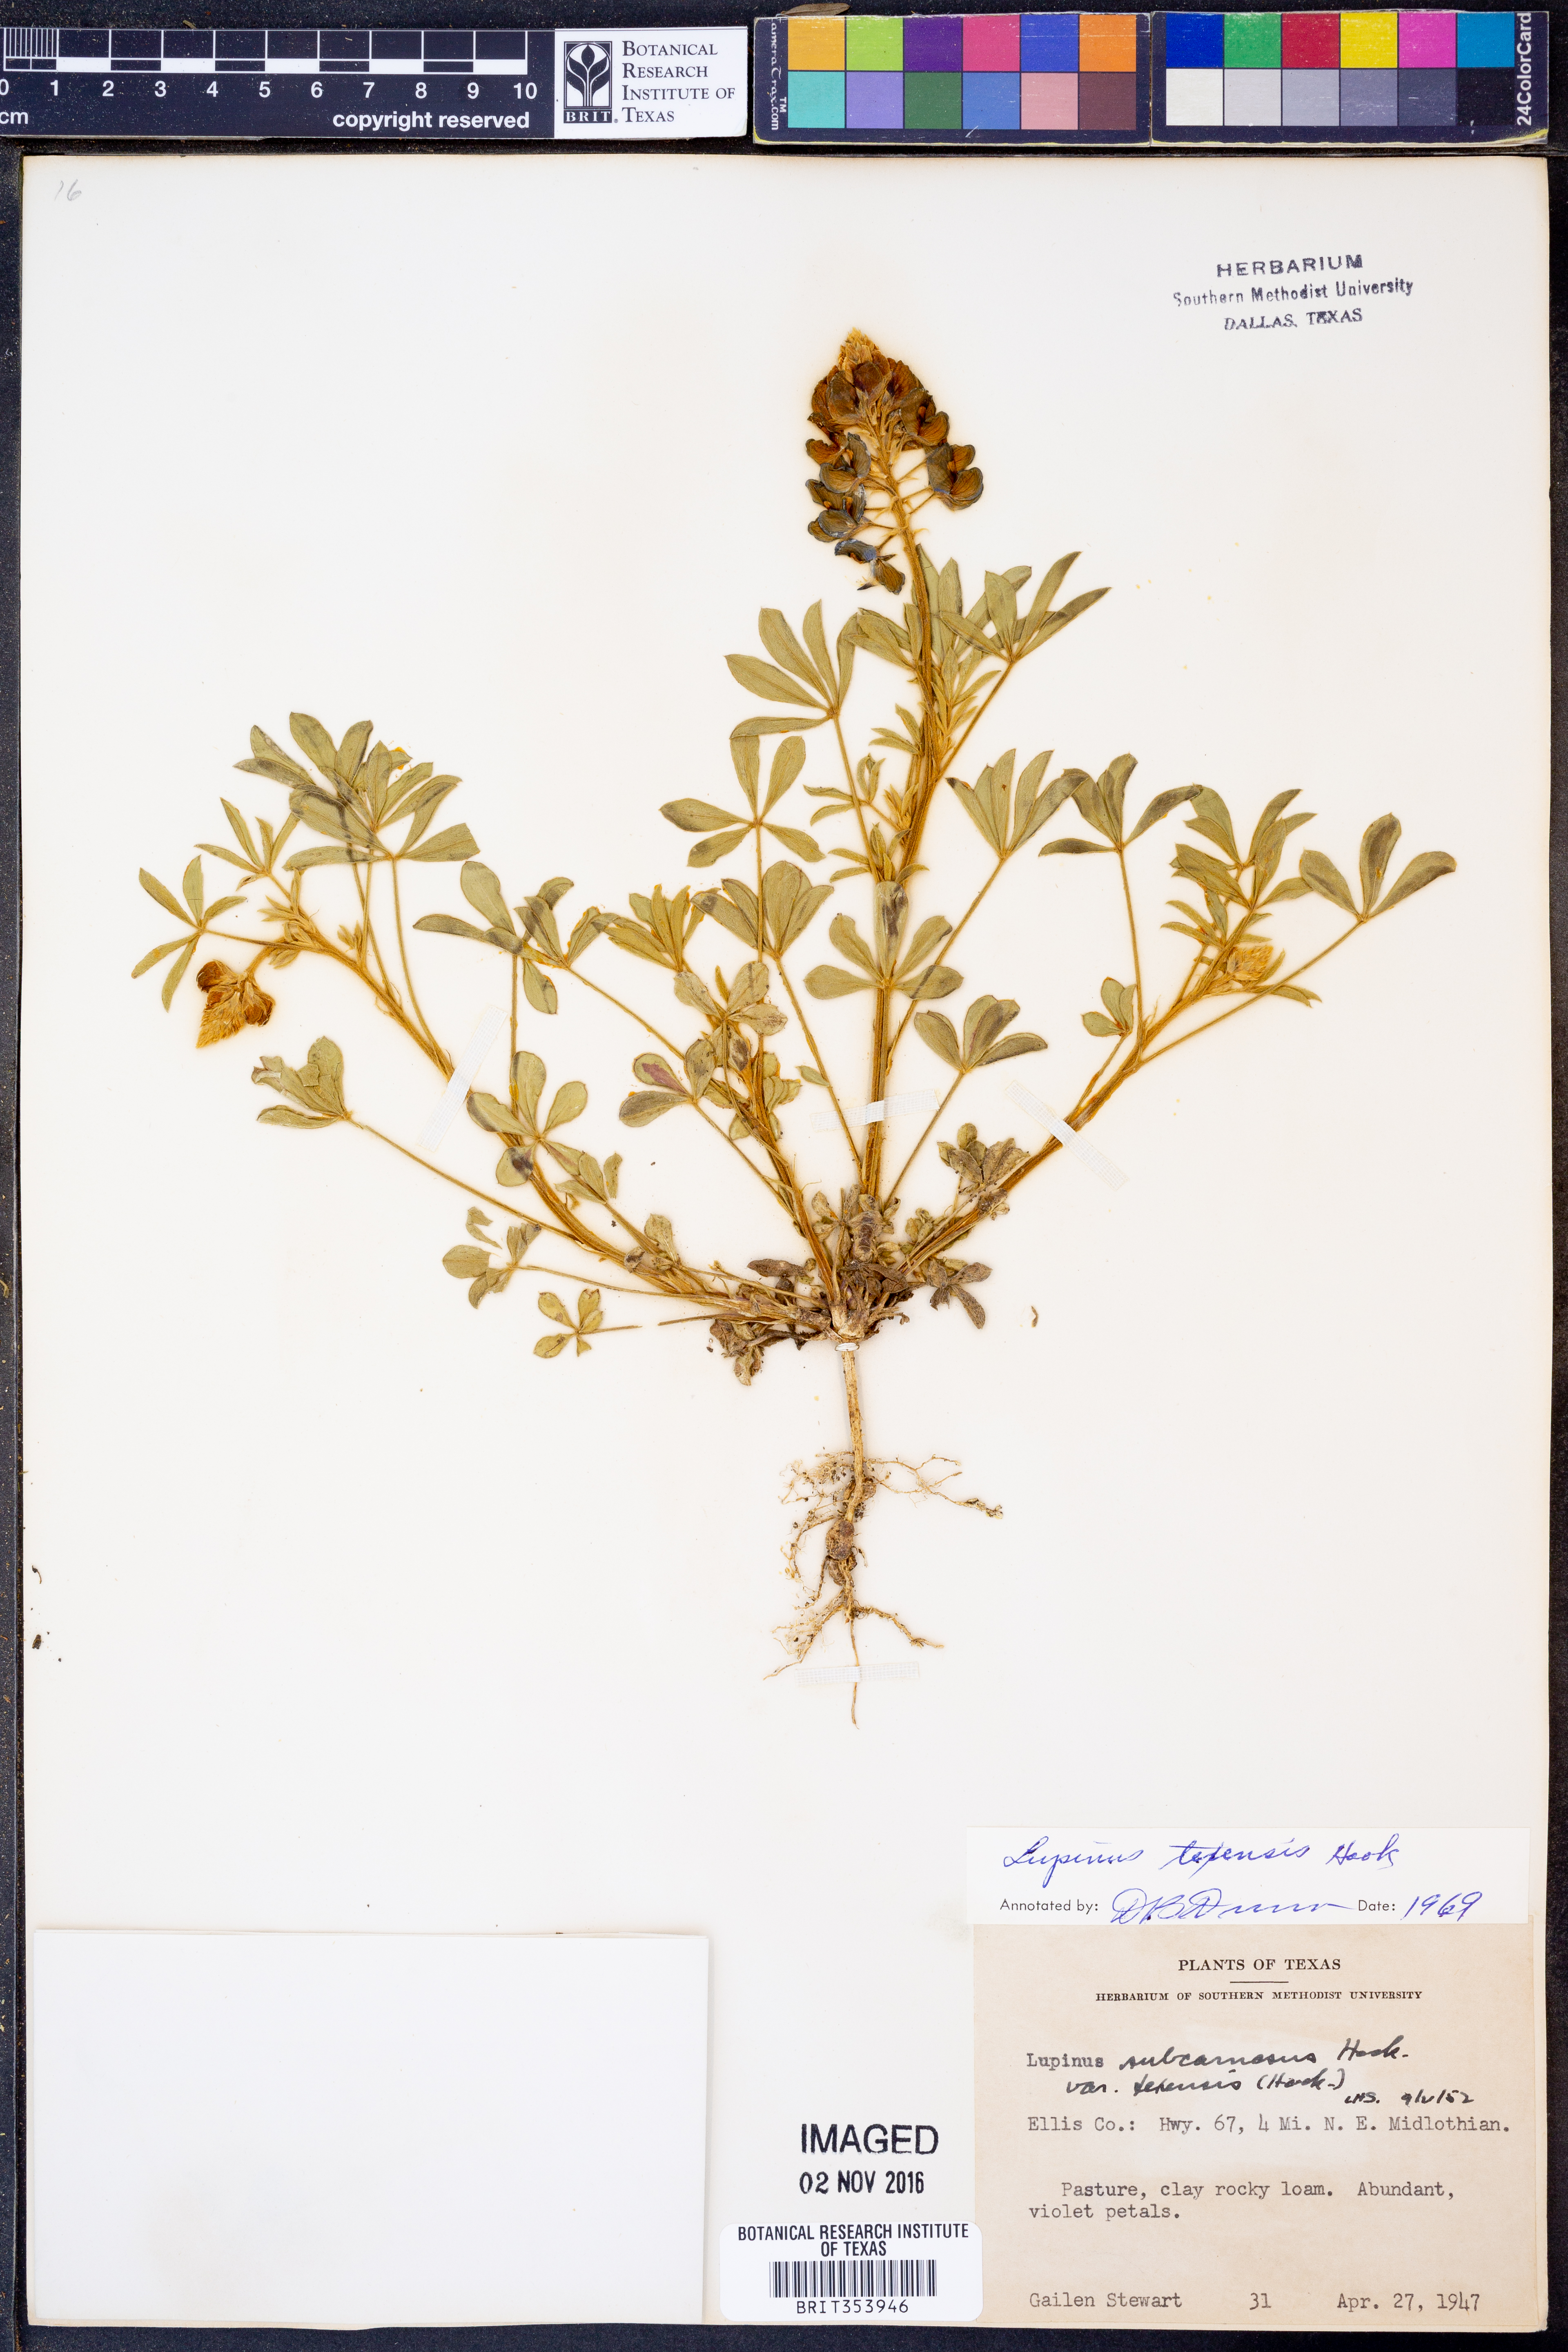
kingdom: Plantae
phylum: Tracheophyta
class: Magnoliopsida
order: Fabales
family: Fabaceae
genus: Lupinus
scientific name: Lupinus texensis
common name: Texas bluebonnet
